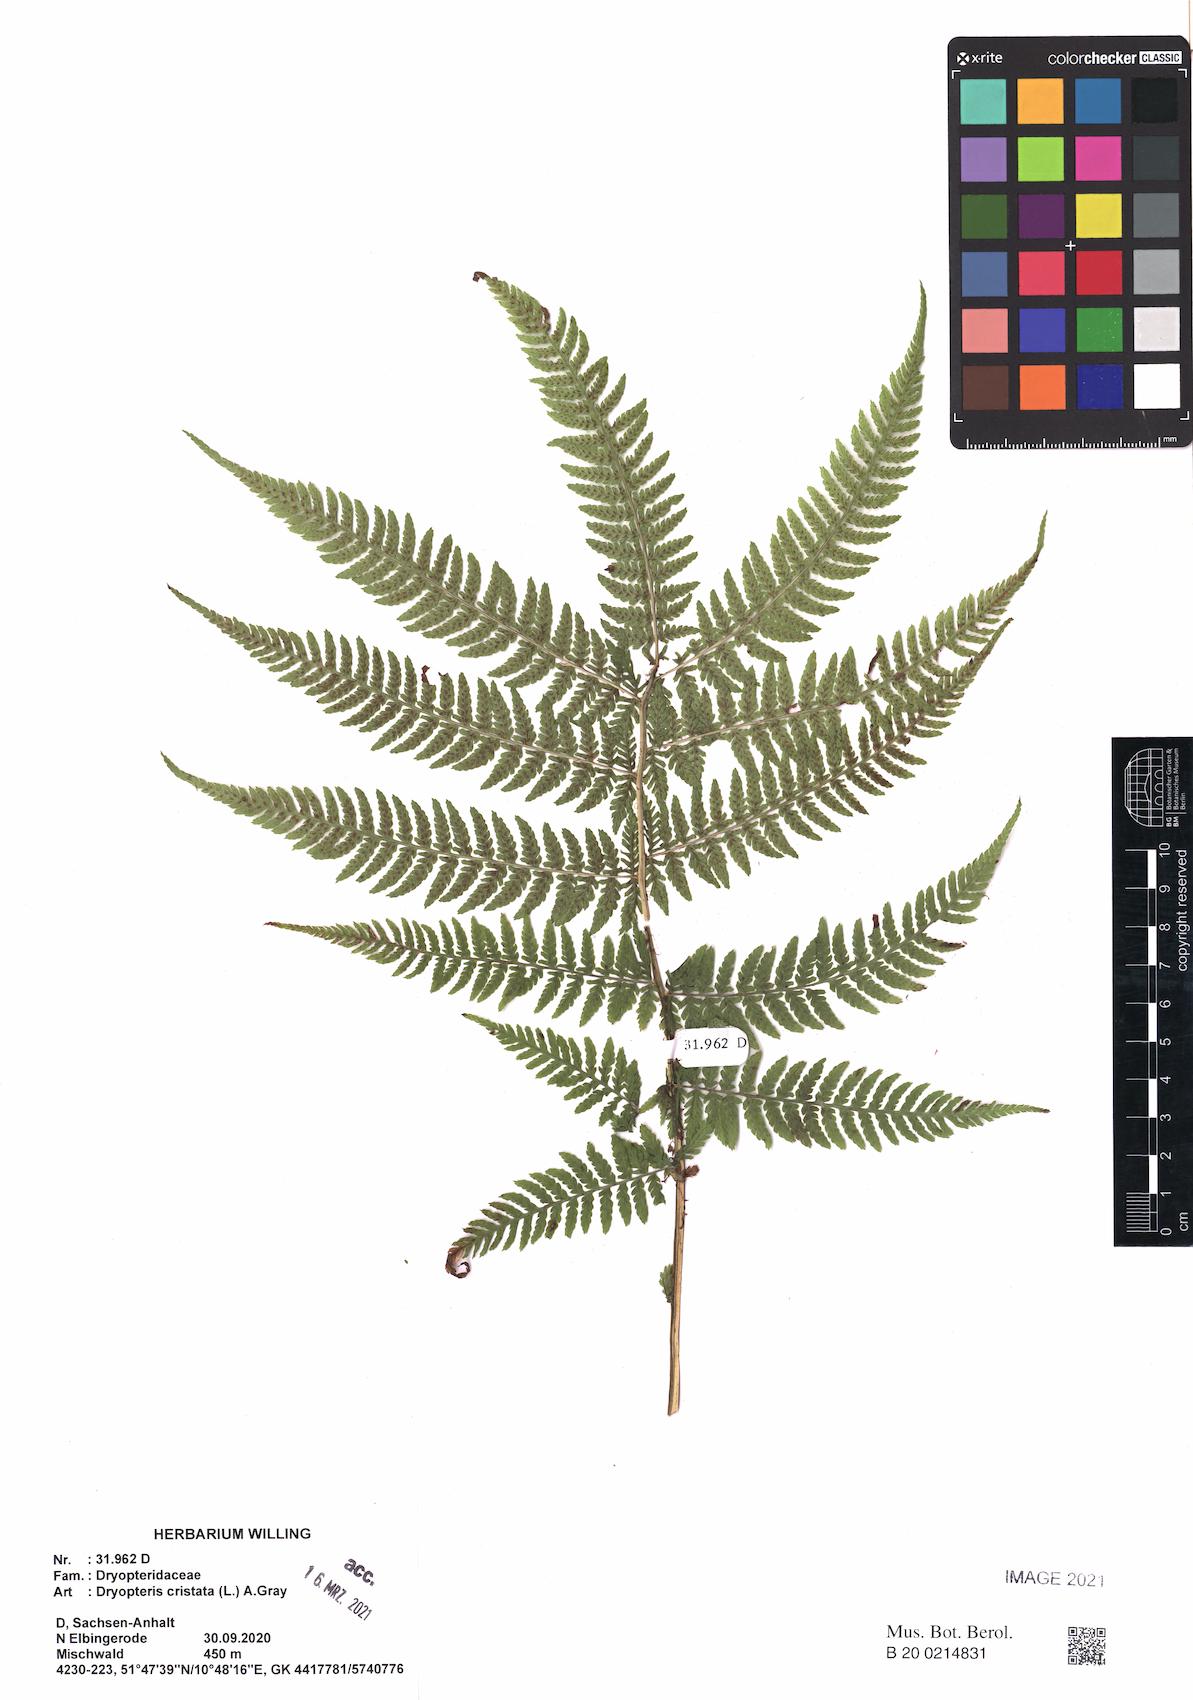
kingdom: Plantae
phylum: Tracheophyta
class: Polypodiopsida
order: Polypodiales
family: Athyriaceae
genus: Athyrium
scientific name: Athyrium filix-femina
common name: Lady fern
